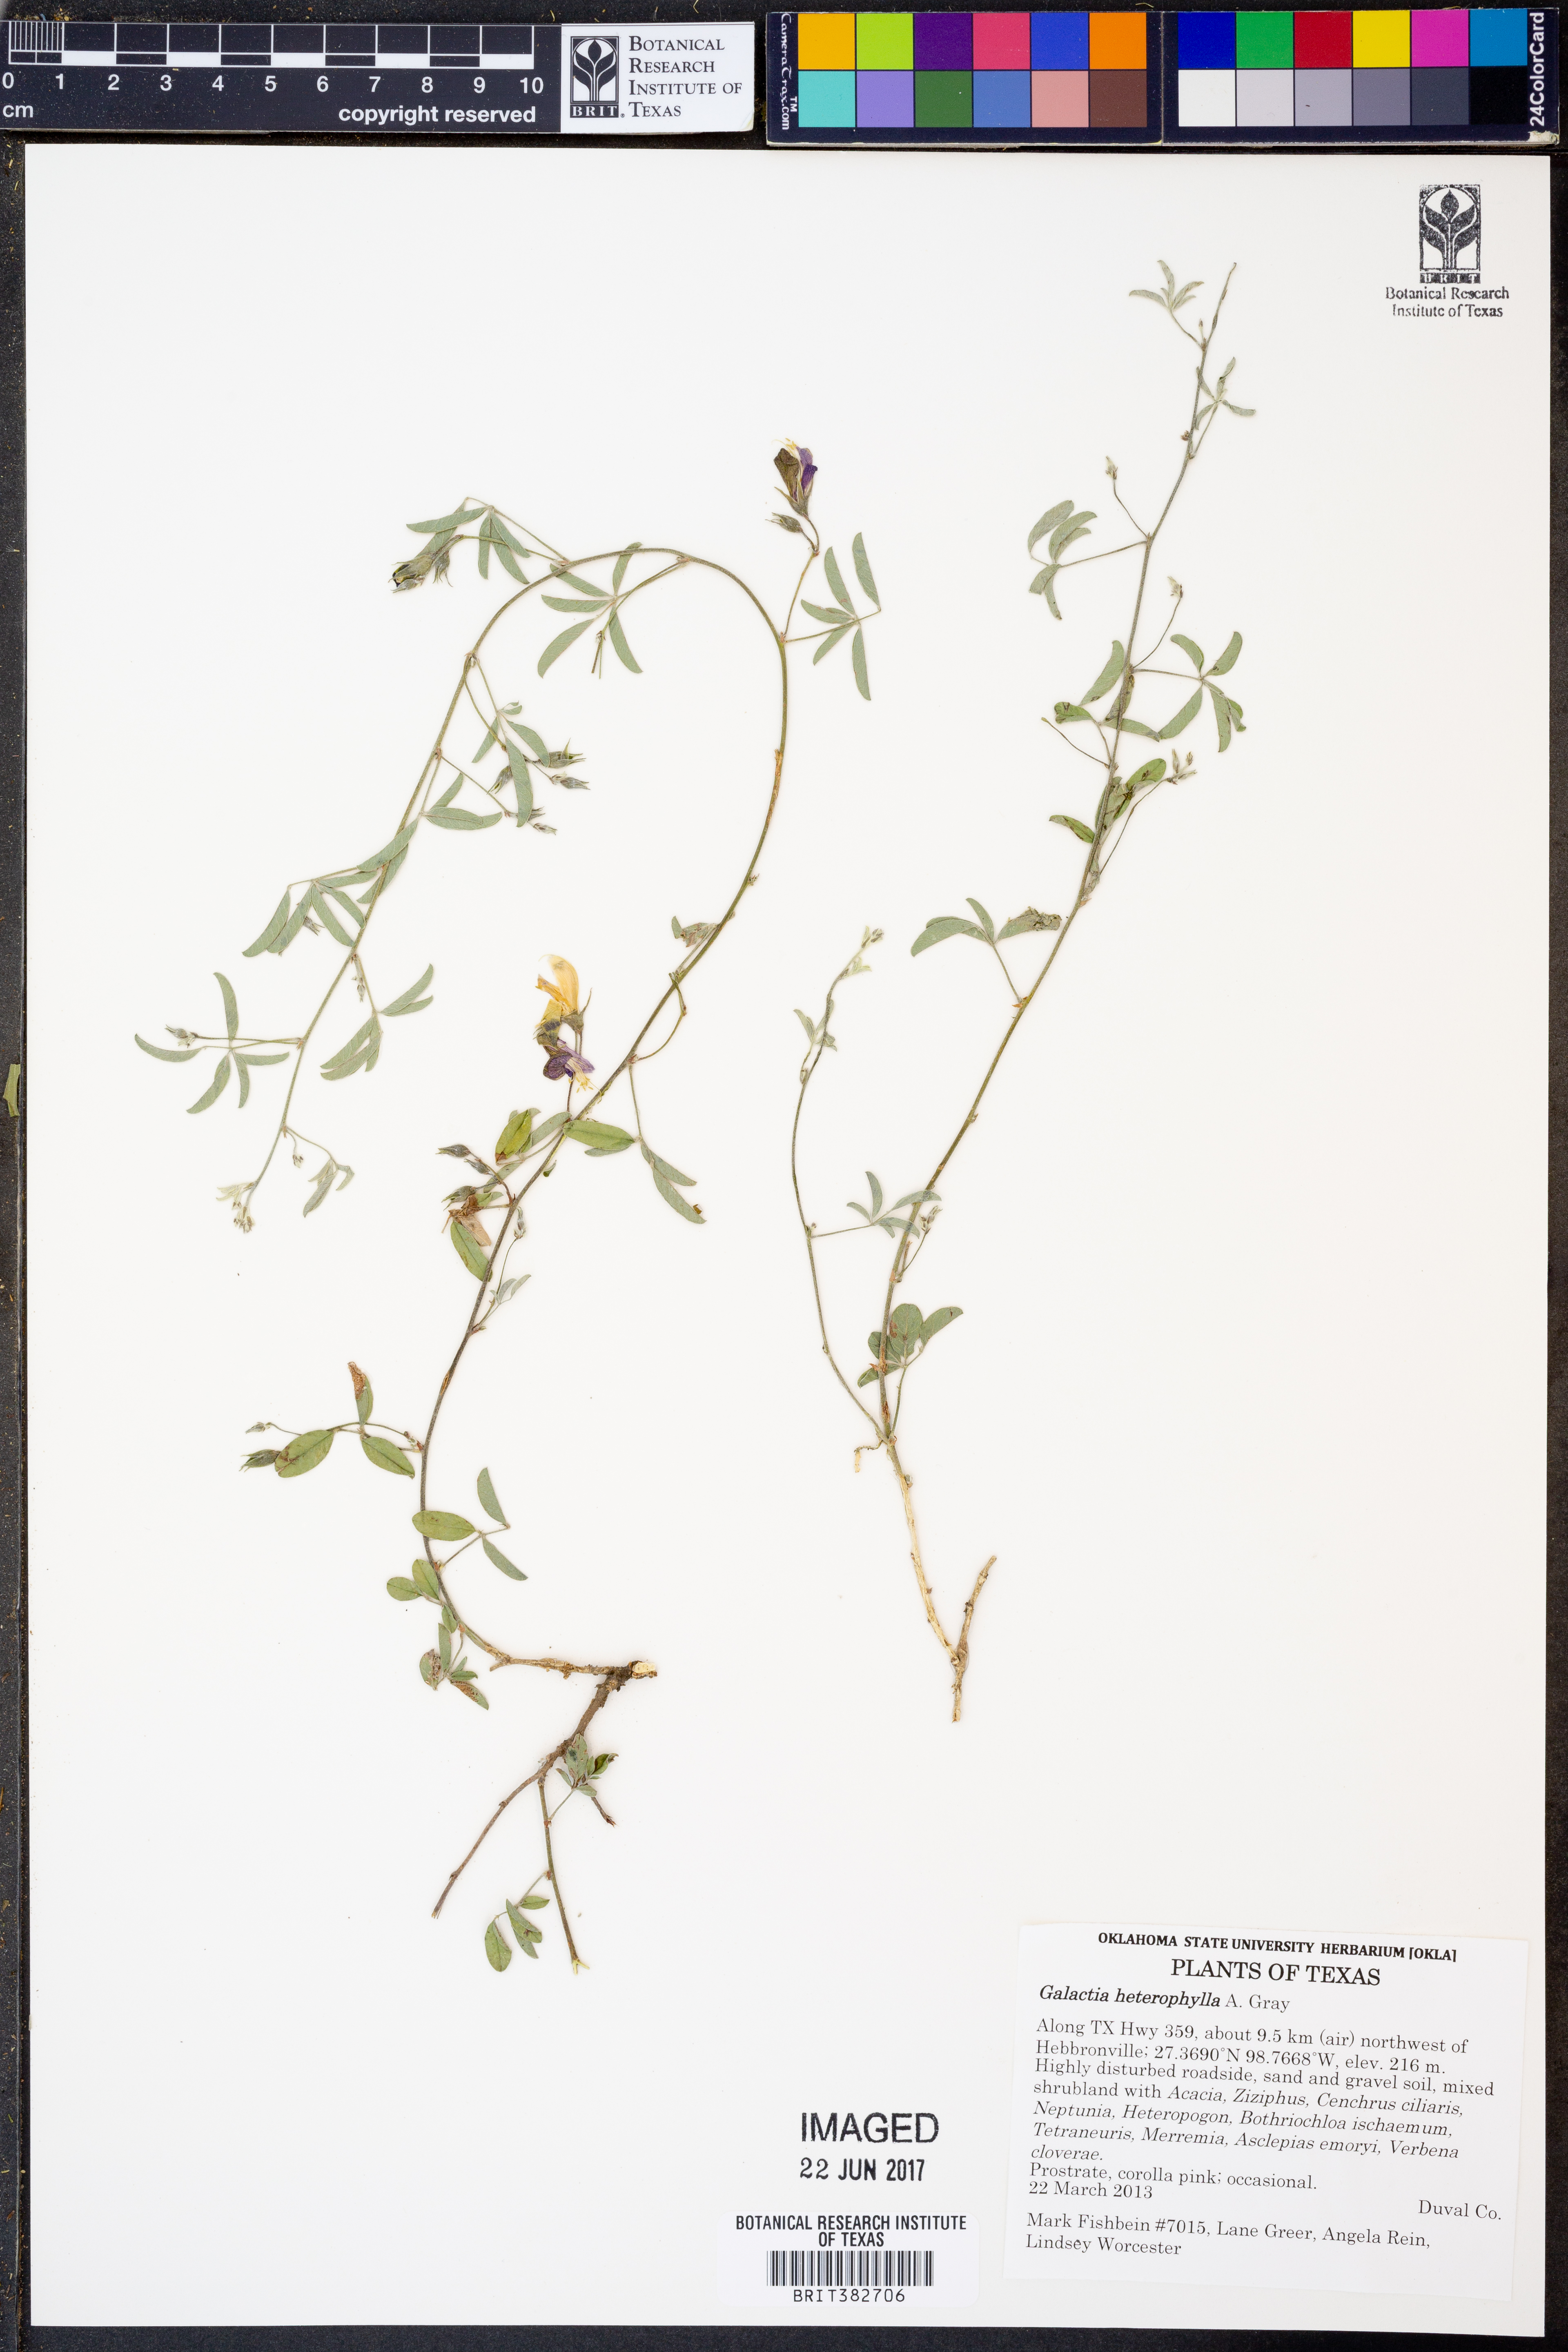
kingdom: Plantae
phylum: Tracheophyta
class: Magnoliopsida
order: Fabales
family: Fabaceae
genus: Galactia
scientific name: Galactia heterophylla
